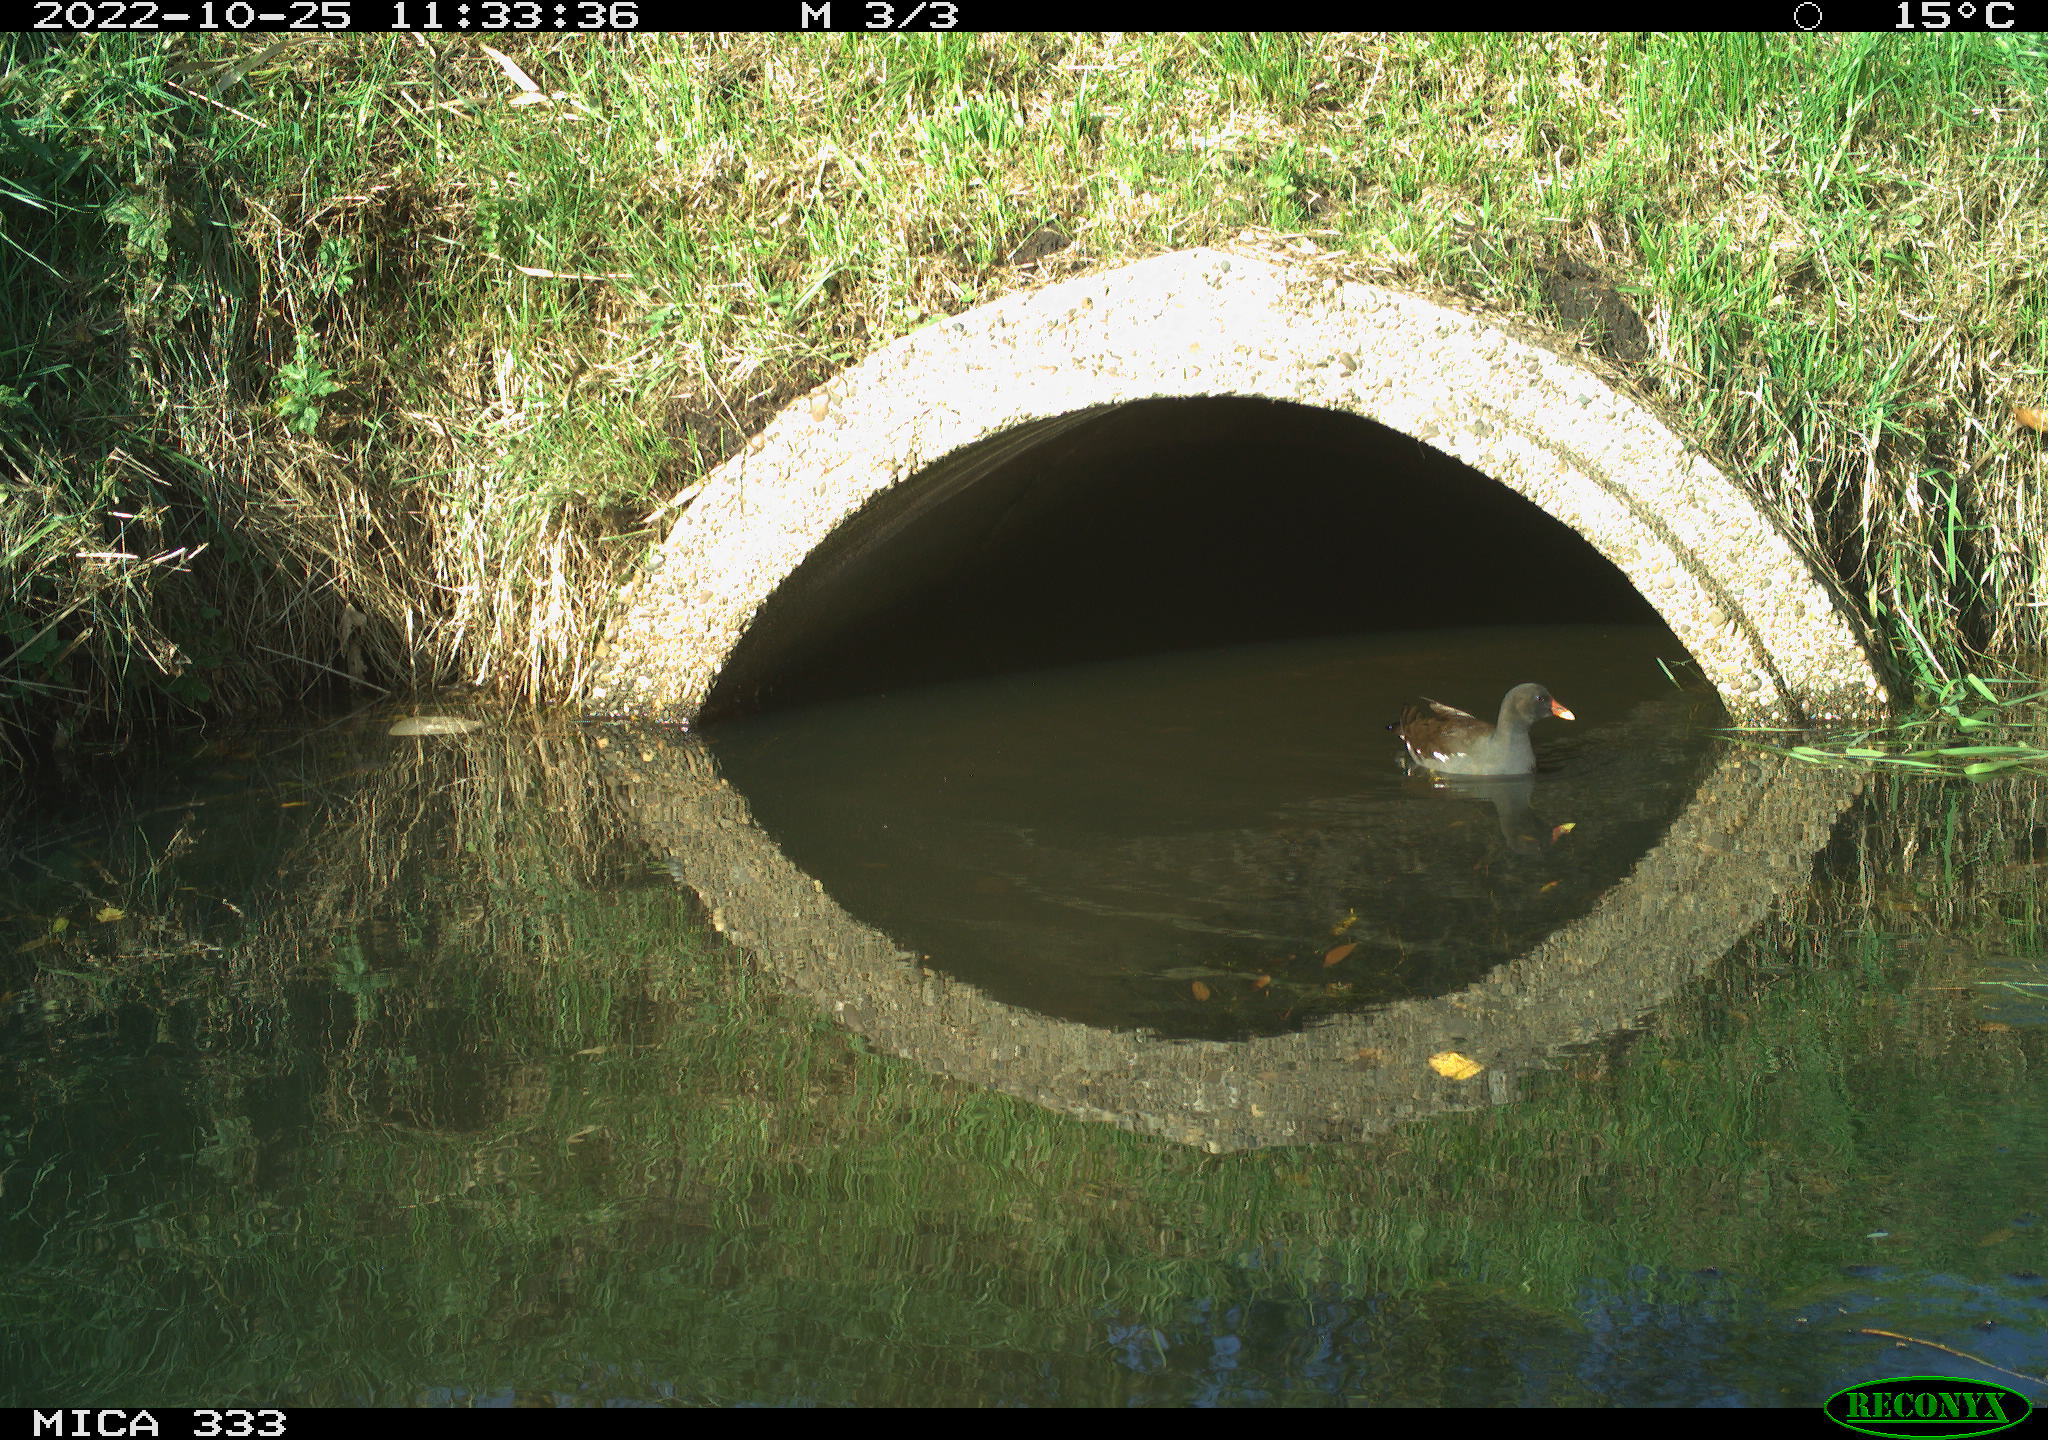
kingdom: Animalia
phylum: Chordata
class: Aves
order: Gruiformes
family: Rallidae
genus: Gallinula
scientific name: Gallinula chloropus
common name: Common moorhen
